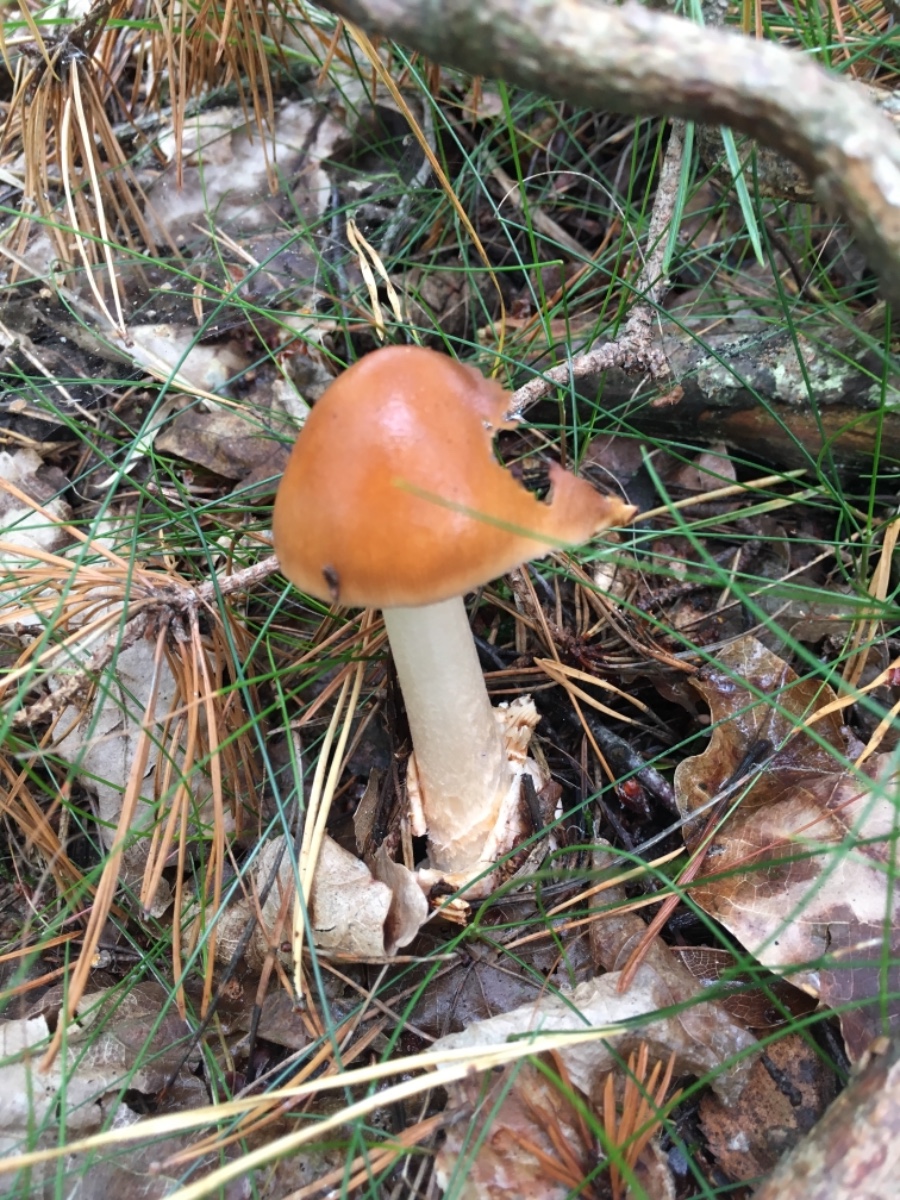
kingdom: Fungi
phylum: Basidiomycota
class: Agaricomycetes
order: Agaricales
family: Amanitaceae
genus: Amanita
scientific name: Amanita fulva
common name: brun kam-fluesvamp
